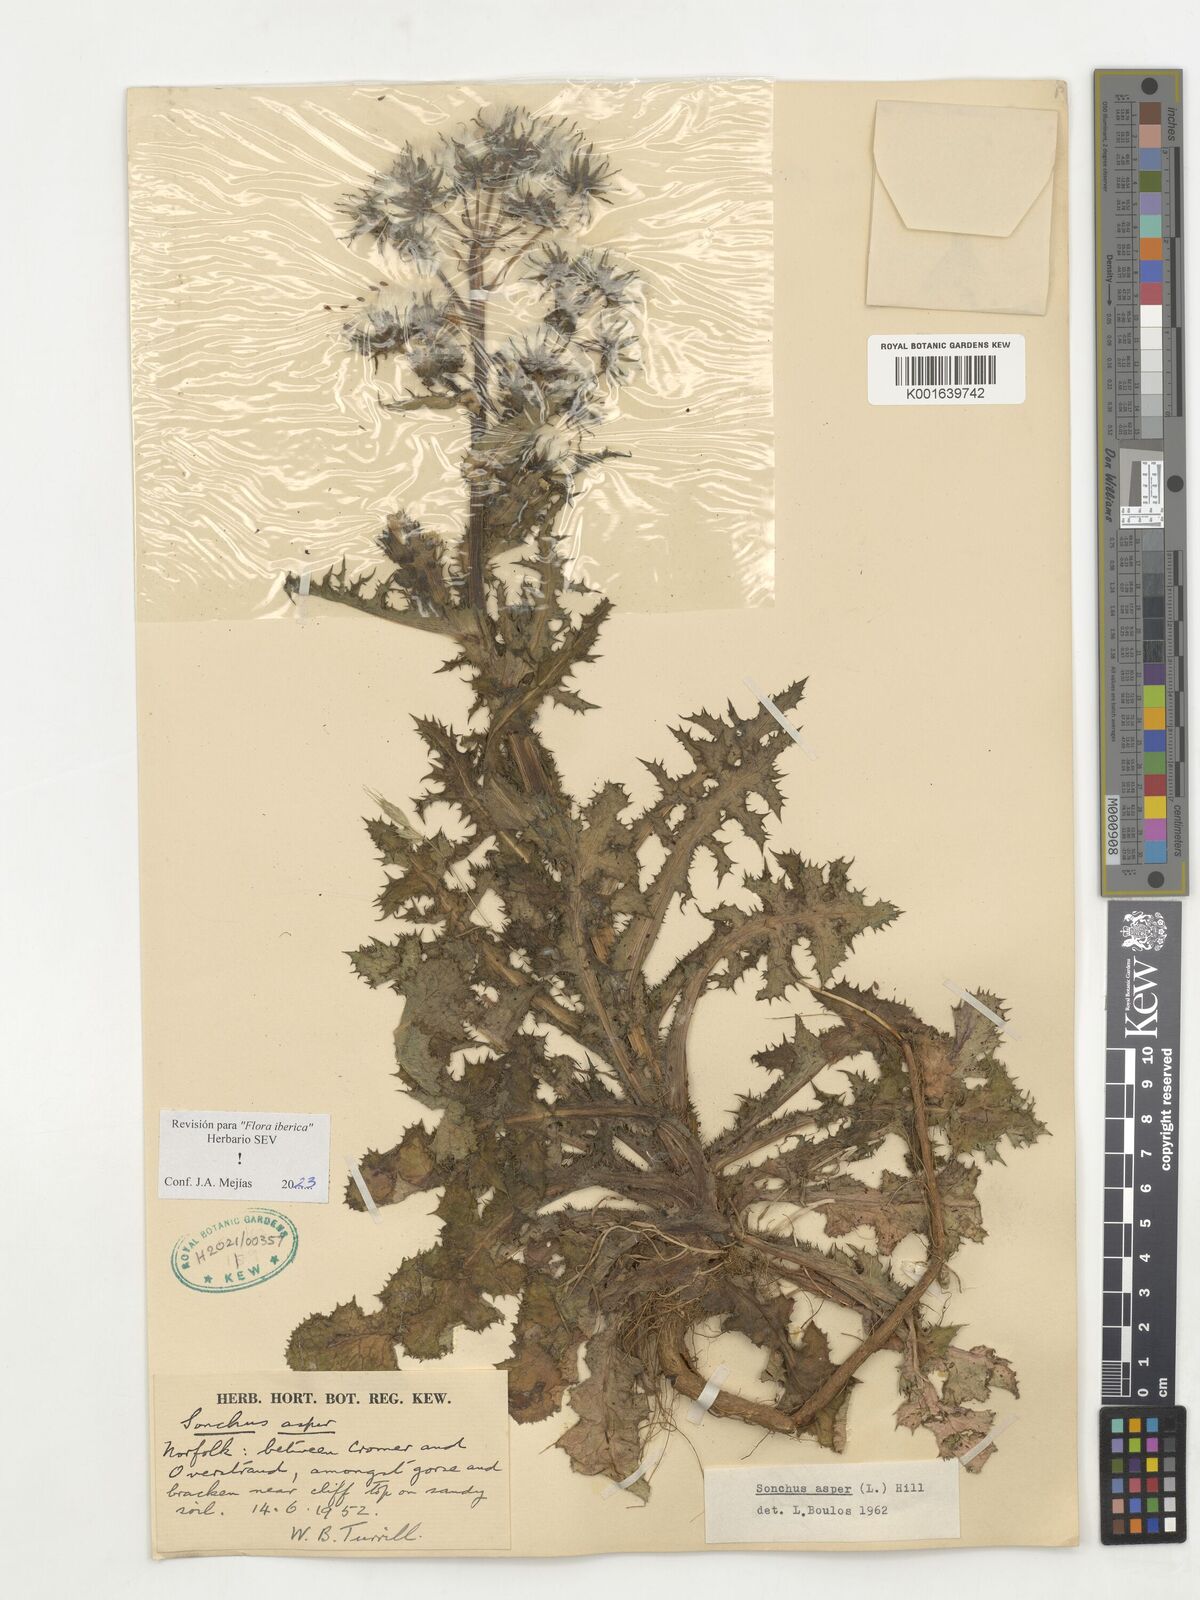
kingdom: Plantae
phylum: Tracheophyta
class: Magnoliopsida
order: Asterales
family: Asteraceae
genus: Sonchus
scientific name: Sonchus asper
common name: Prickly sow-thistle
